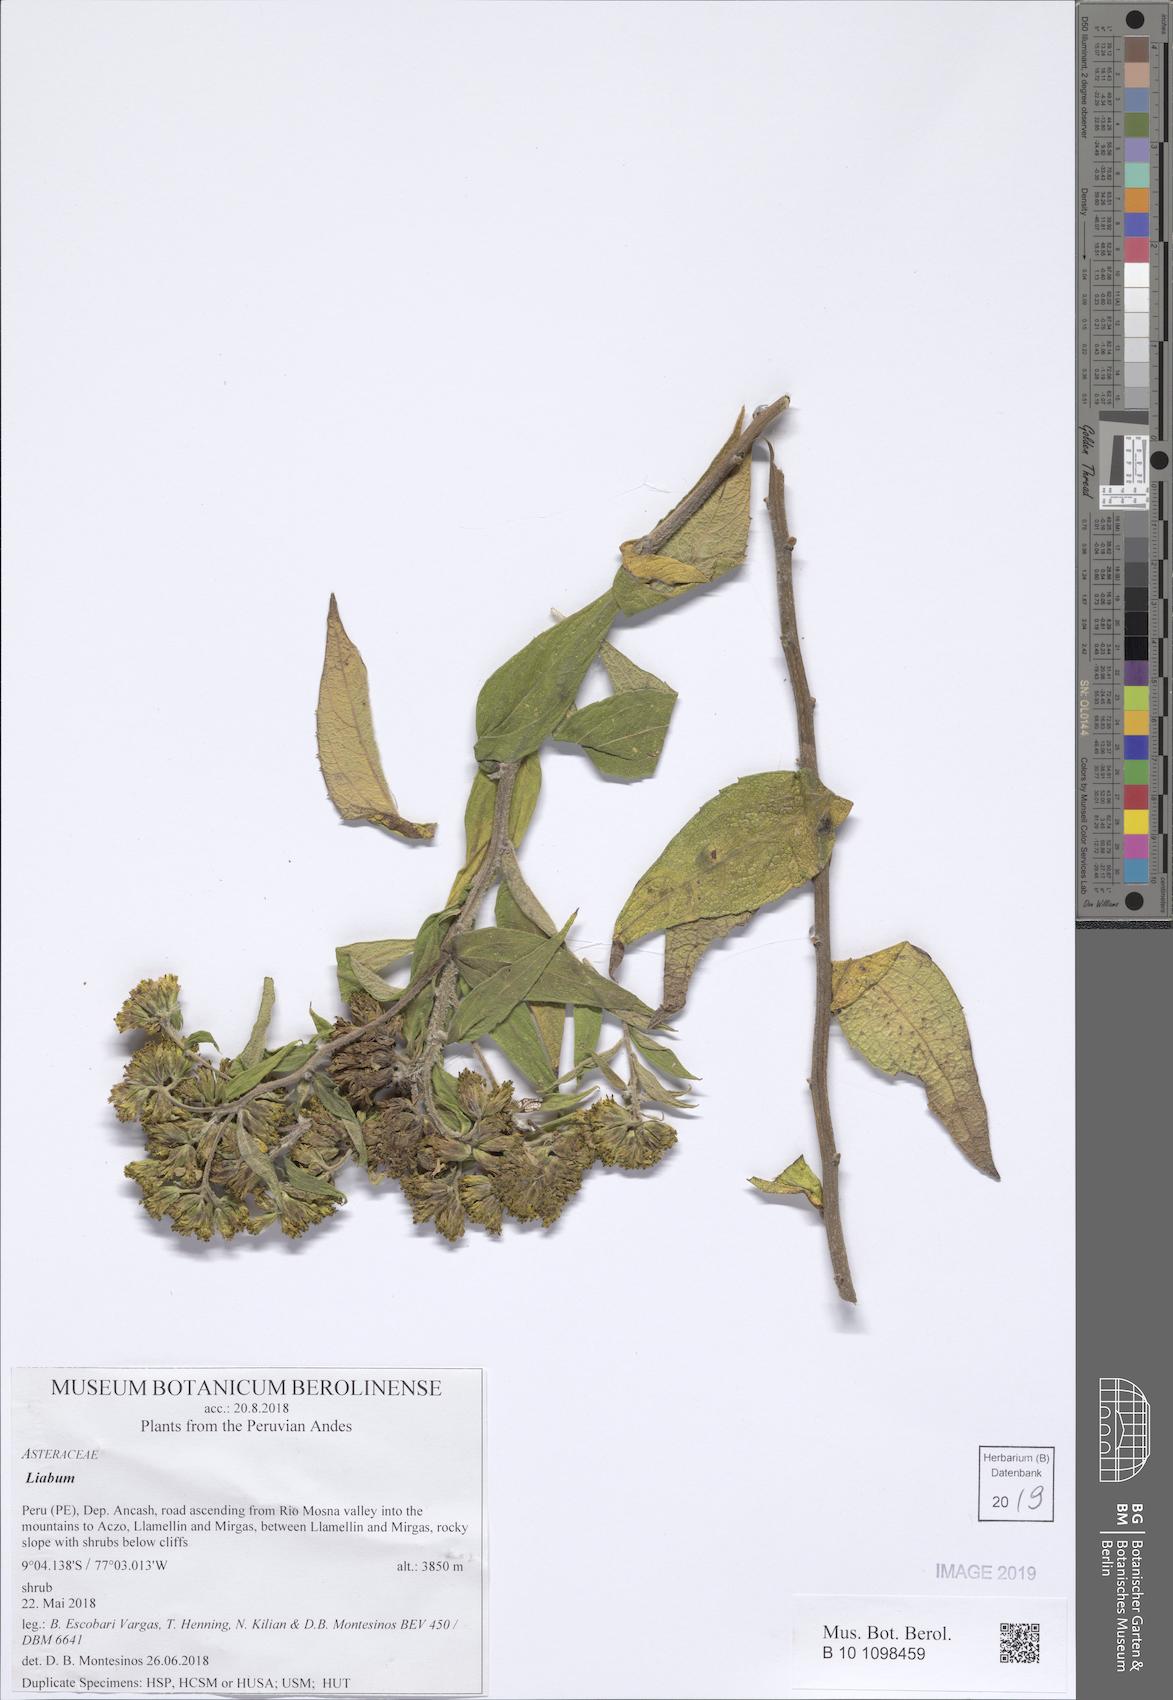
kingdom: Plantae
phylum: Tracheophyta
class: Magnoliopsida
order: Asterales
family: Asteraceae
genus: Liabum
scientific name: Liabum
